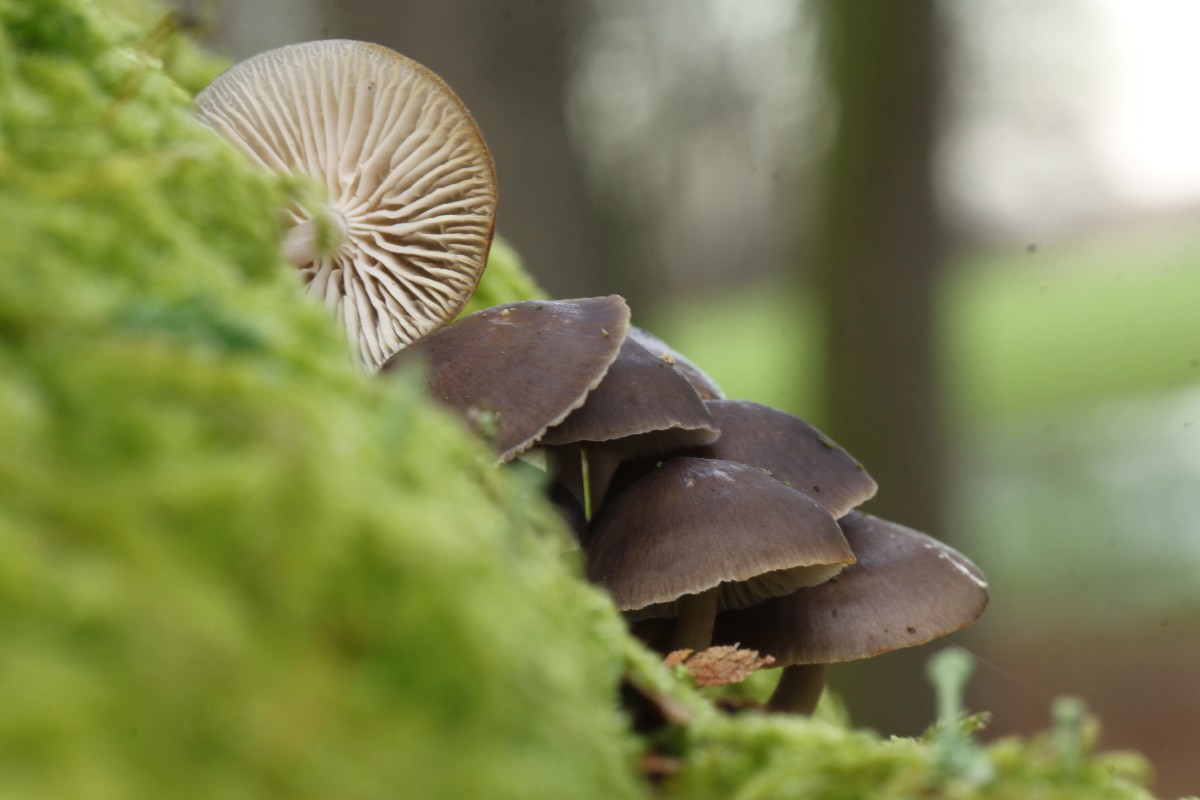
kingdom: Fungi
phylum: Basidiomycota
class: Agaricomycetes
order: Agaricales
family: Mycenaceae
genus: Mycena
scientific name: Mycena inclinata
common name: nikkende huesvamp
